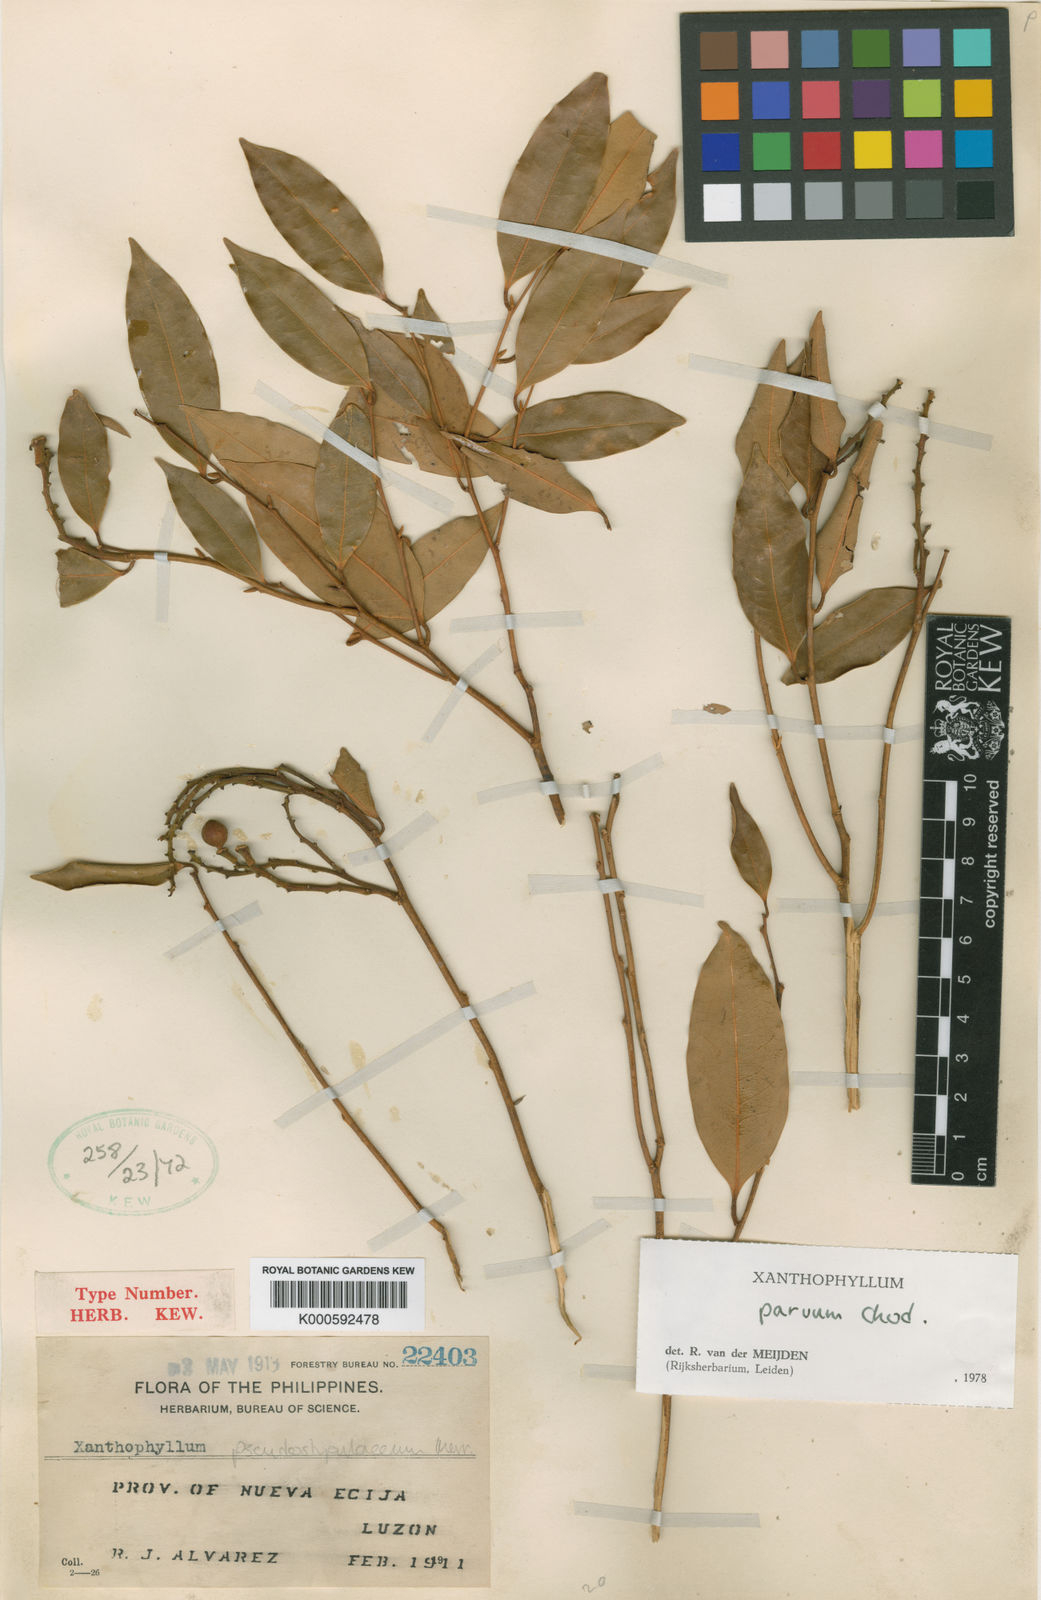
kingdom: Plantae
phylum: Tracheophyta
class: Magnoliopsida
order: Fabales
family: Polygalaceae
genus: Xanthophyllum
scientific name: Xanthophyllum
